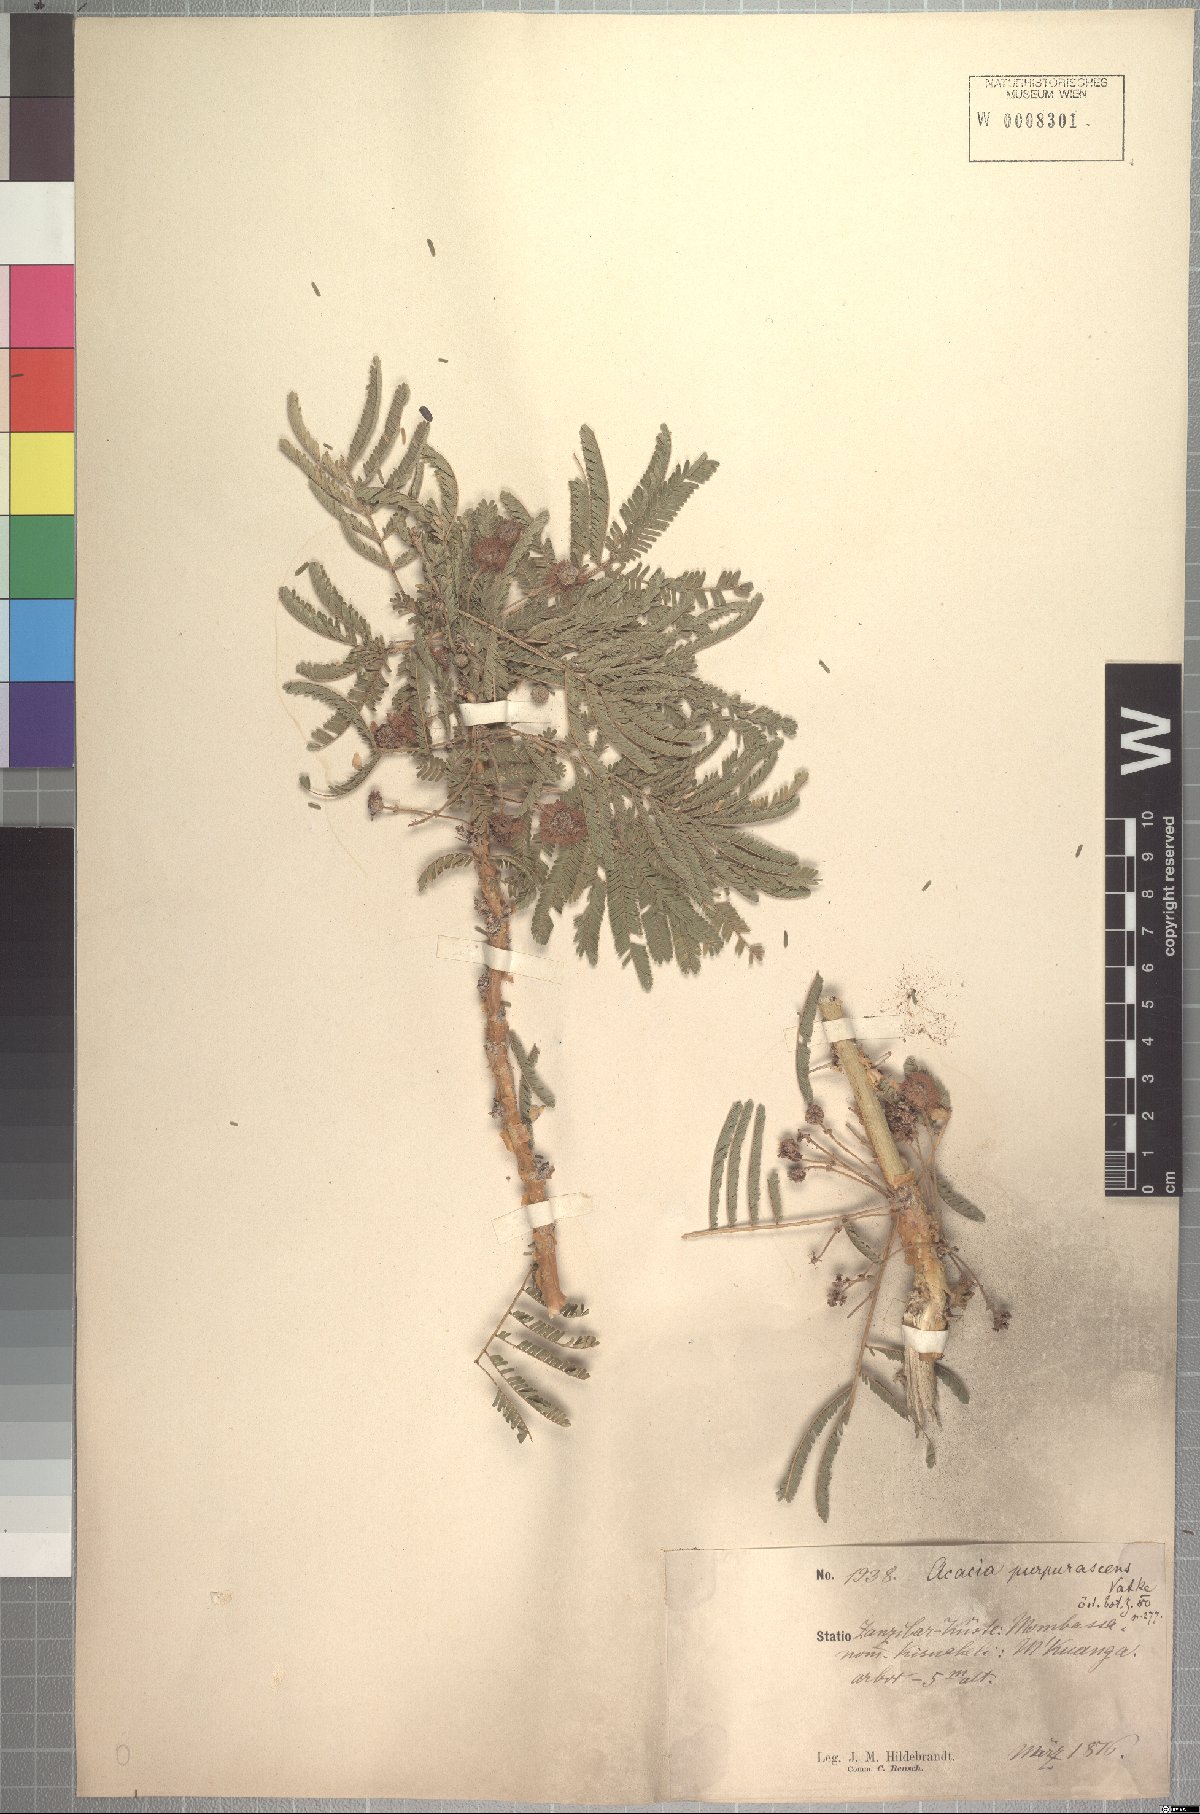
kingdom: Plantae
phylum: Tracheophyta
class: Magnoliopsida
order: Fabales
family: Fabaceae
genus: Vachellia
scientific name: Vachellia sieberiana
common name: Flat-topped thorn
